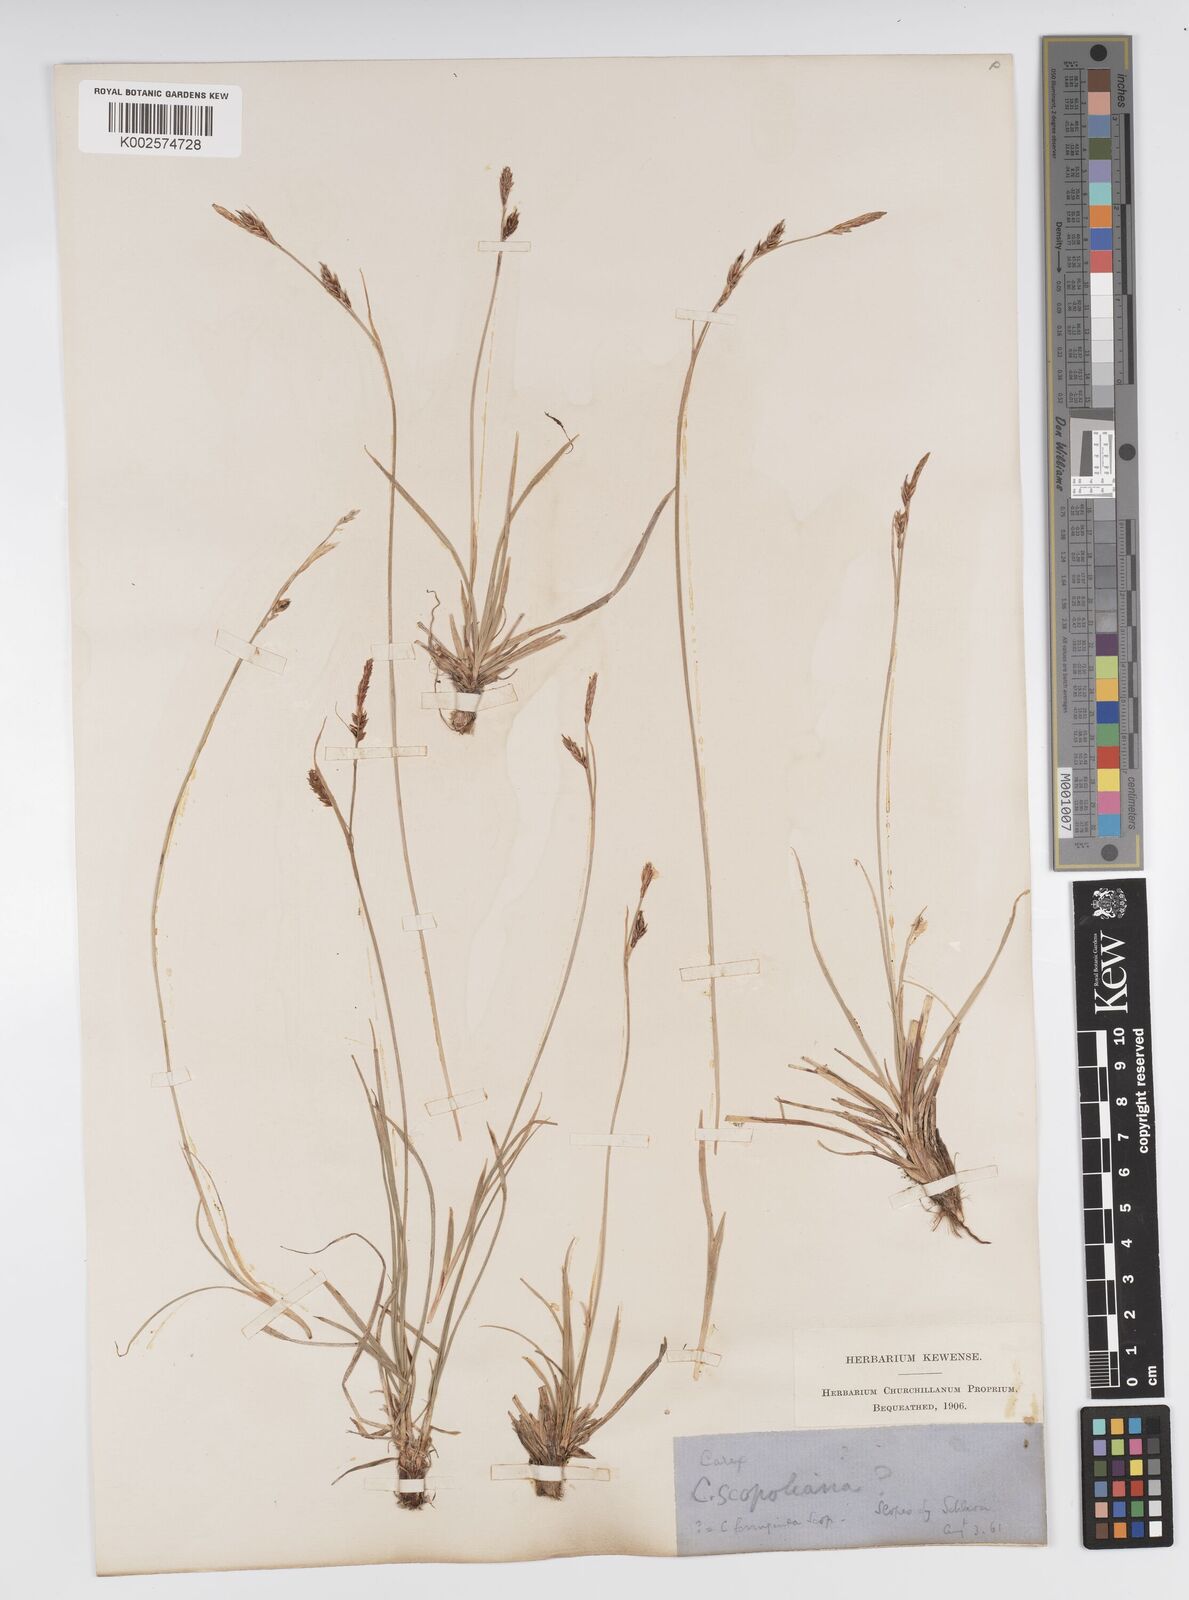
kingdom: Plantae
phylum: Tracheophyta
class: Liliopsida
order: Poales
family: Cyperaceae
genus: Carex
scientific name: Carex ferruginea
